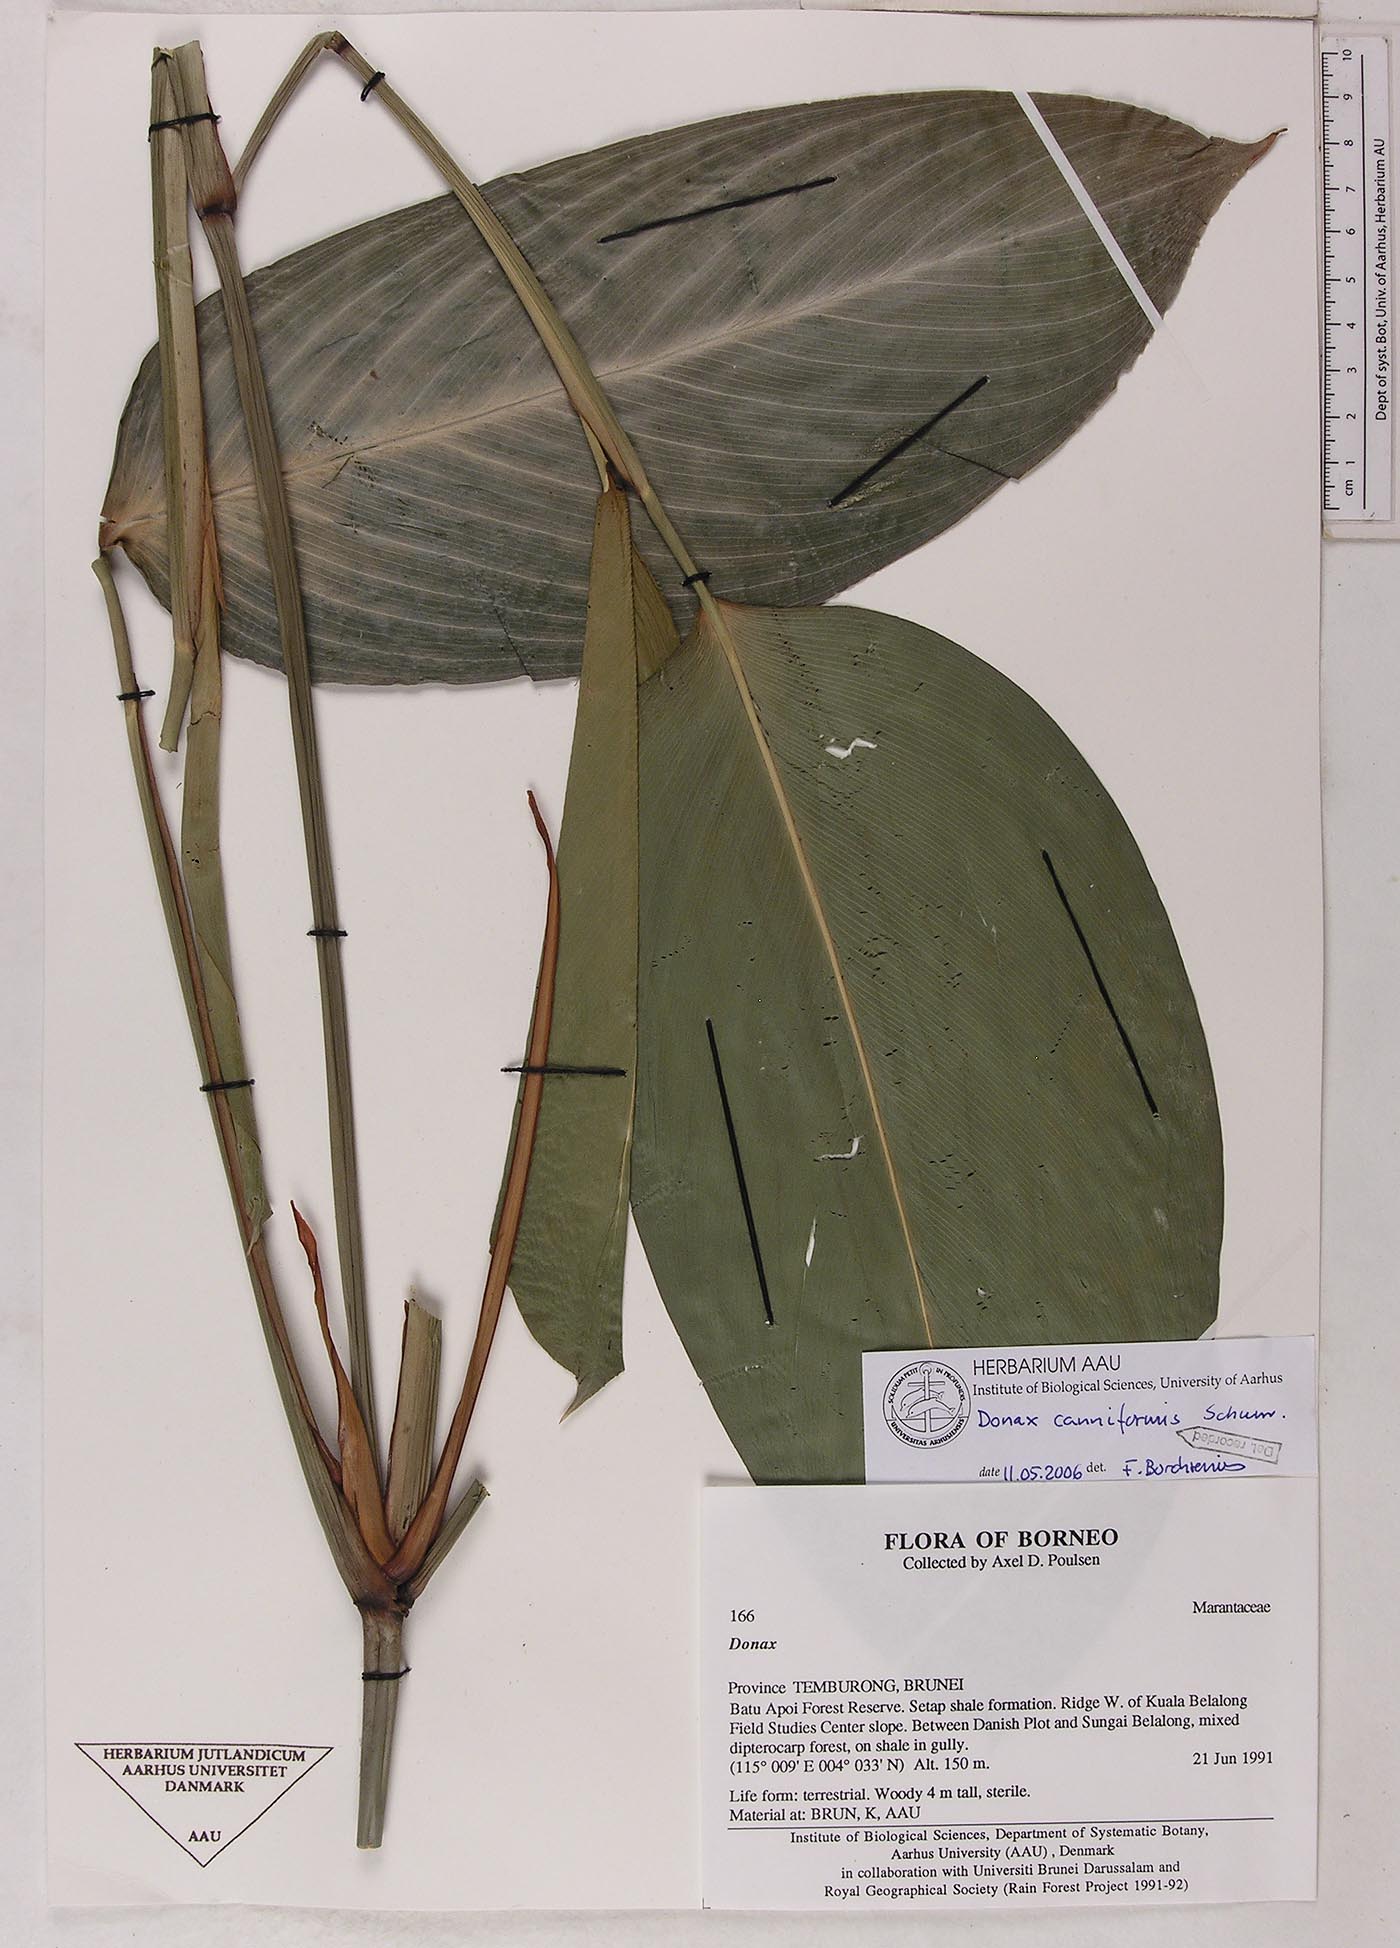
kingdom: Plantae
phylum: Tracheophyta
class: Liliopsida
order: Zingiberales
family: Marantaceae
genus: Donax
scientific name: Donax canniformis
